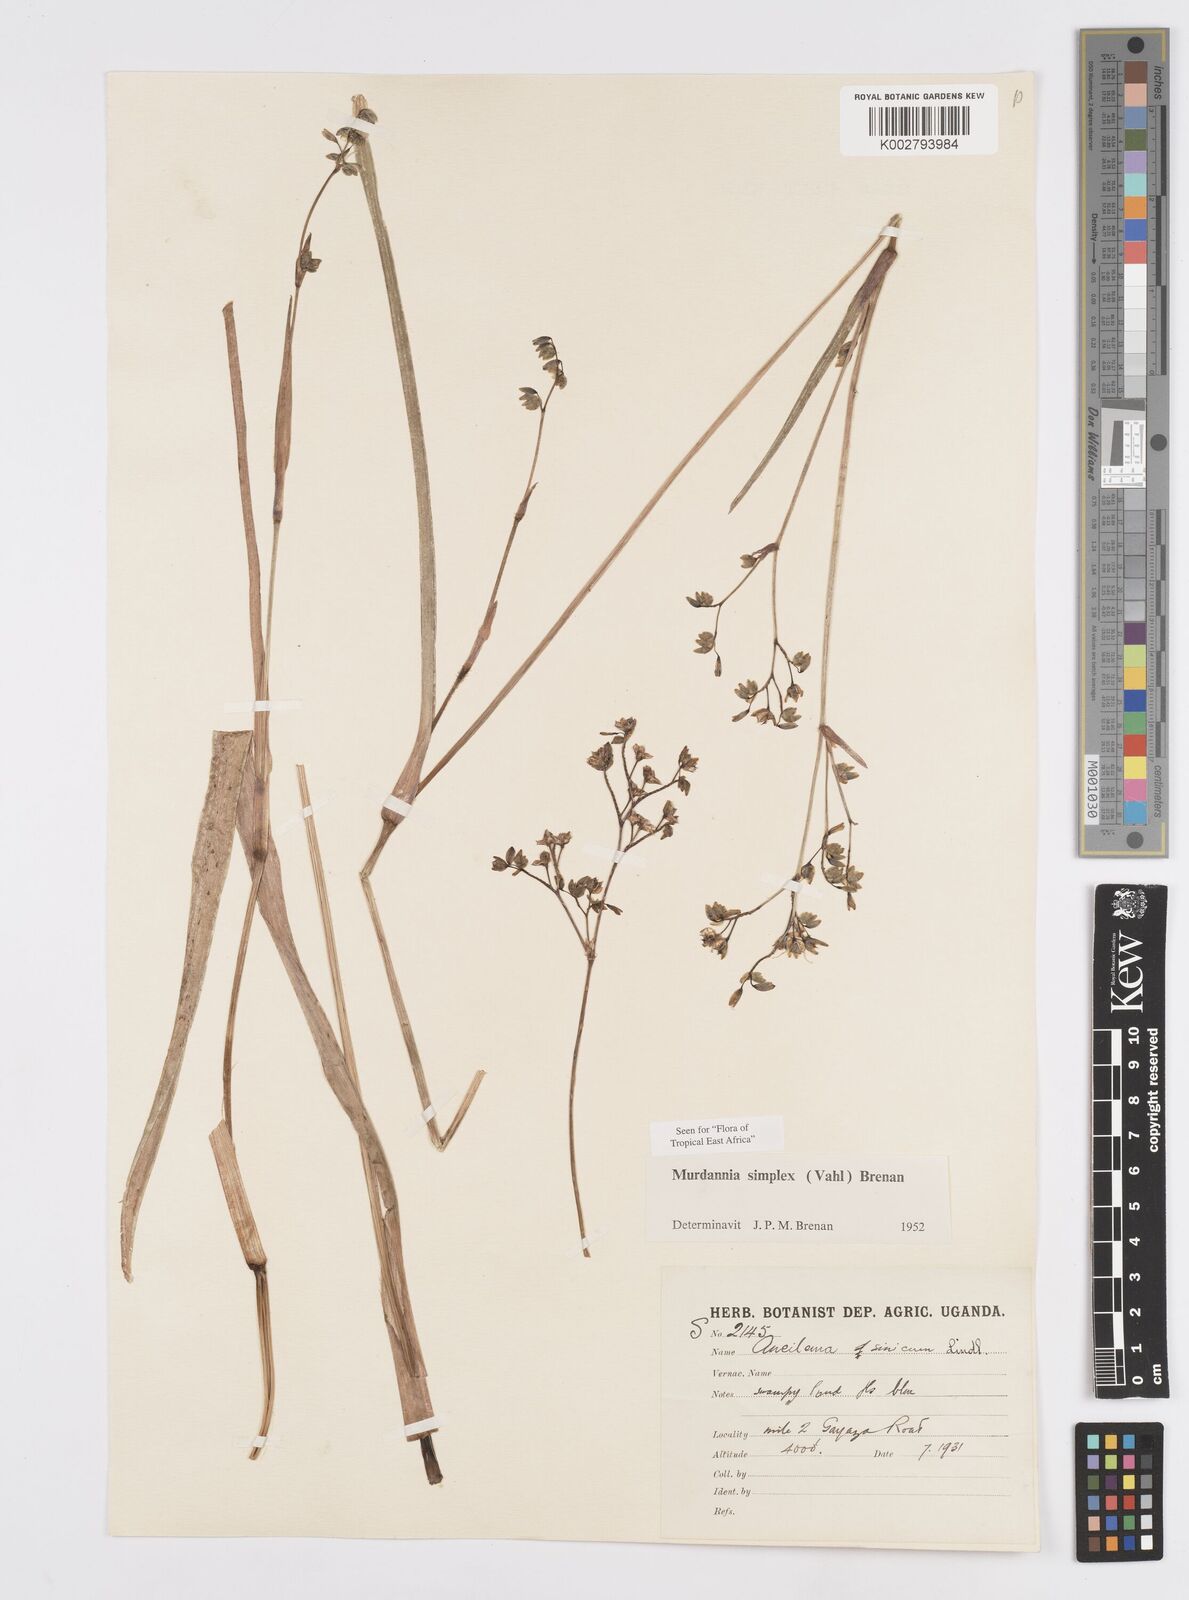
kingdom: Plantae
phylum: Tracheophyta
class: Liliopsida
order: Commelinales
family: Commelinaceae
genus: Murdannia
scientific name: Murdannia simplex
